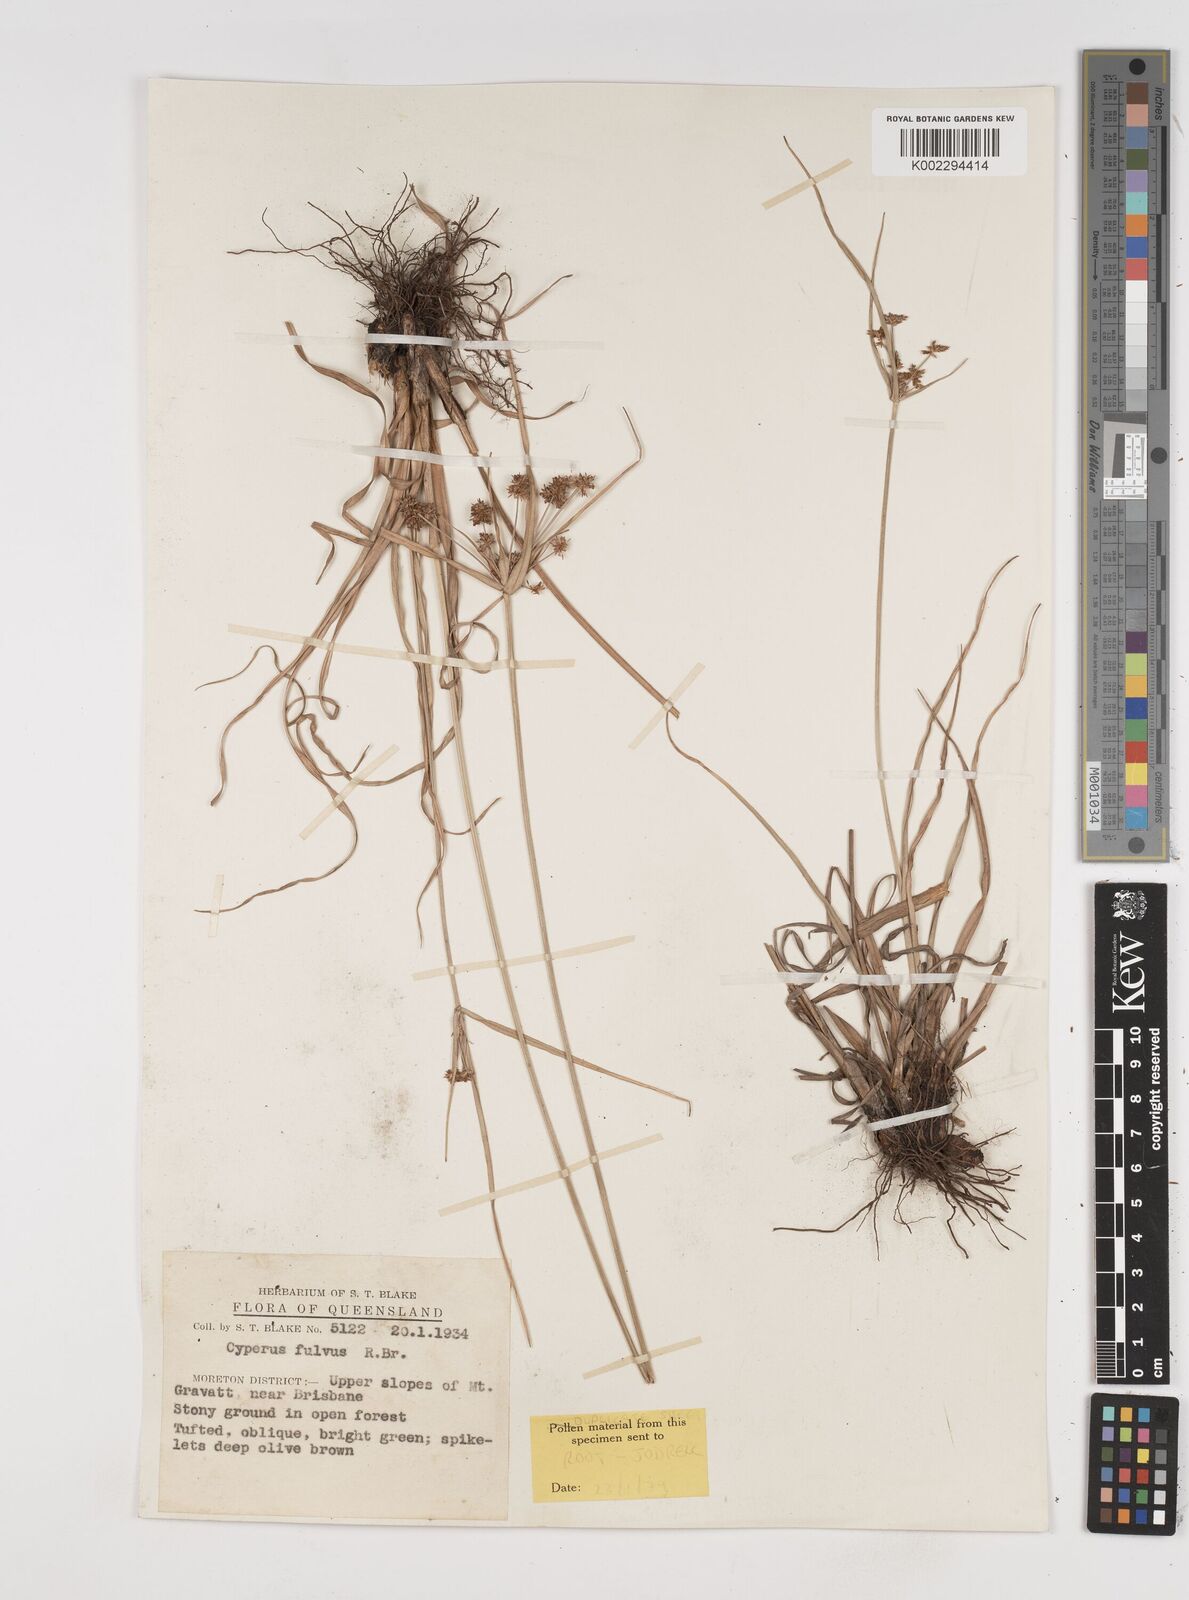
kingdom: Plantae
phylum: Tracheophyta
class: Liliopsida
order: Poales
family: Cyperaceae
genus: Cyperus
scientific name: Cyperus fulvus
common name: Sticky sedge
